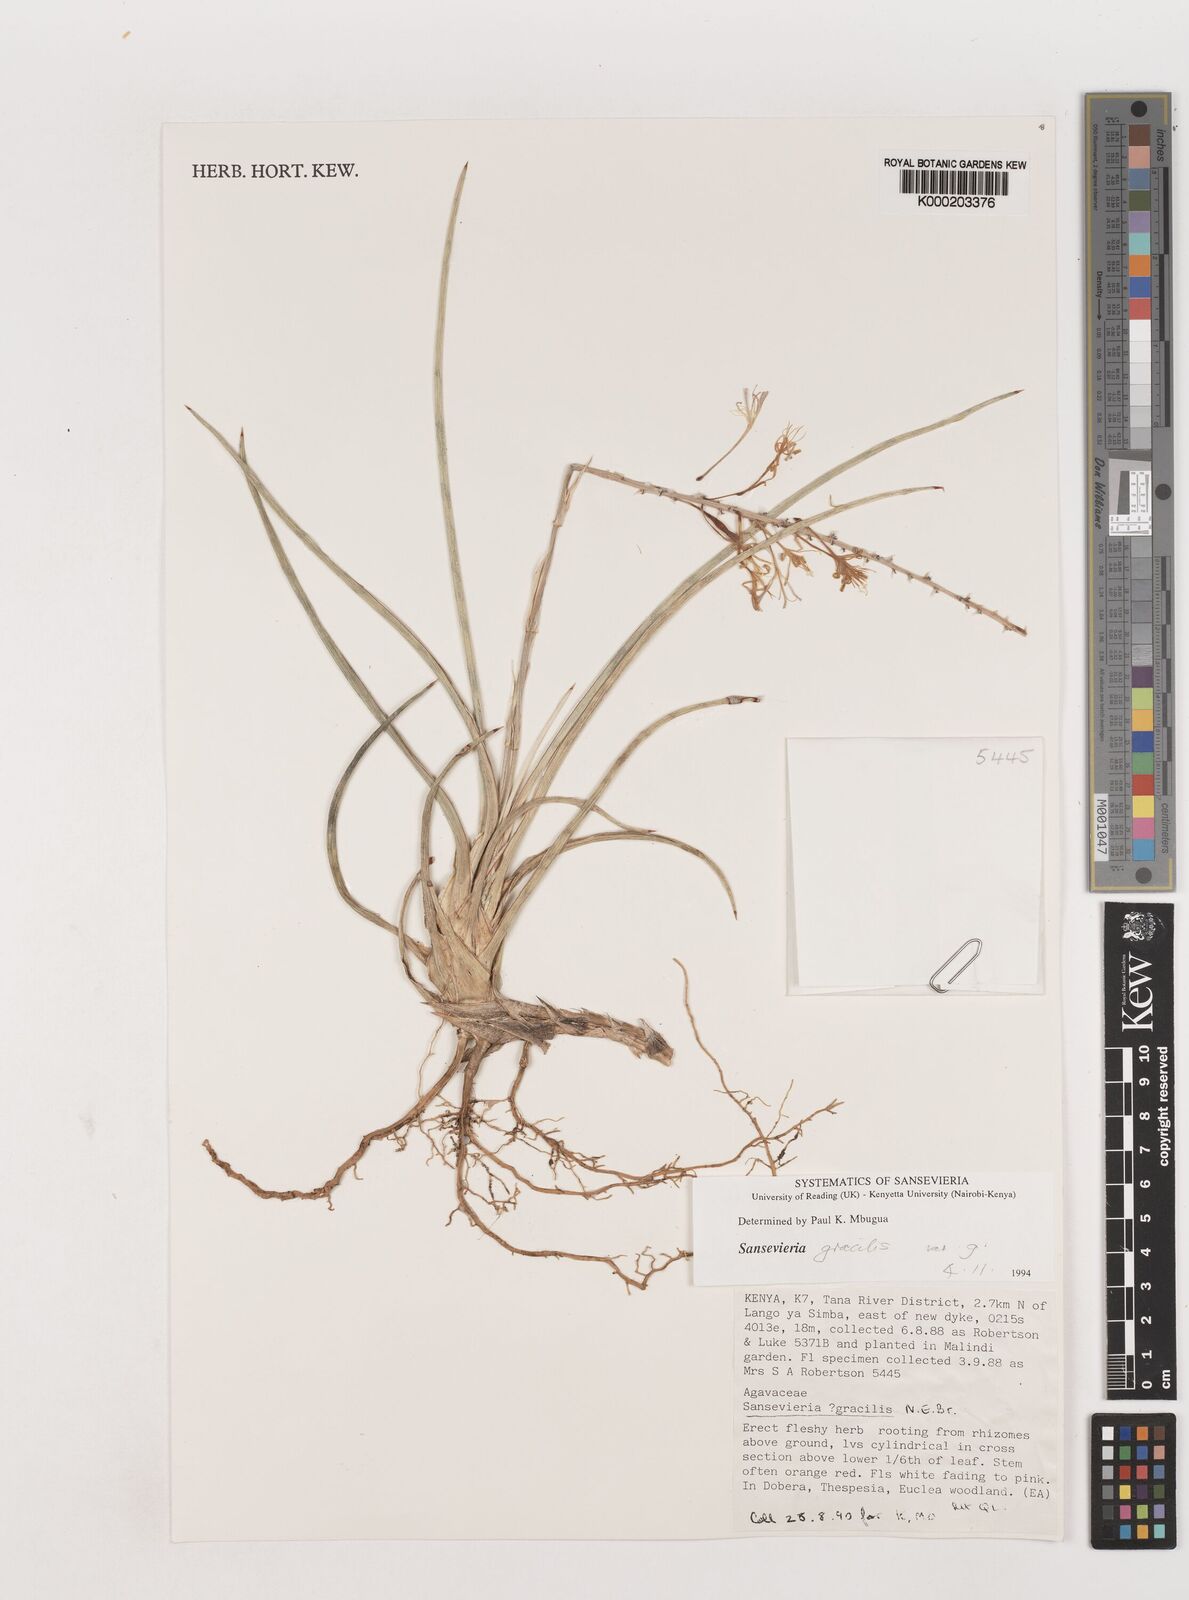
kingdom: Plantae
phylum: Tracheophyta
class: Liliopsida
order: Asparagales
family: Asparagaceae
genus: Dracaena
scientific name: Dracaena serpenta
